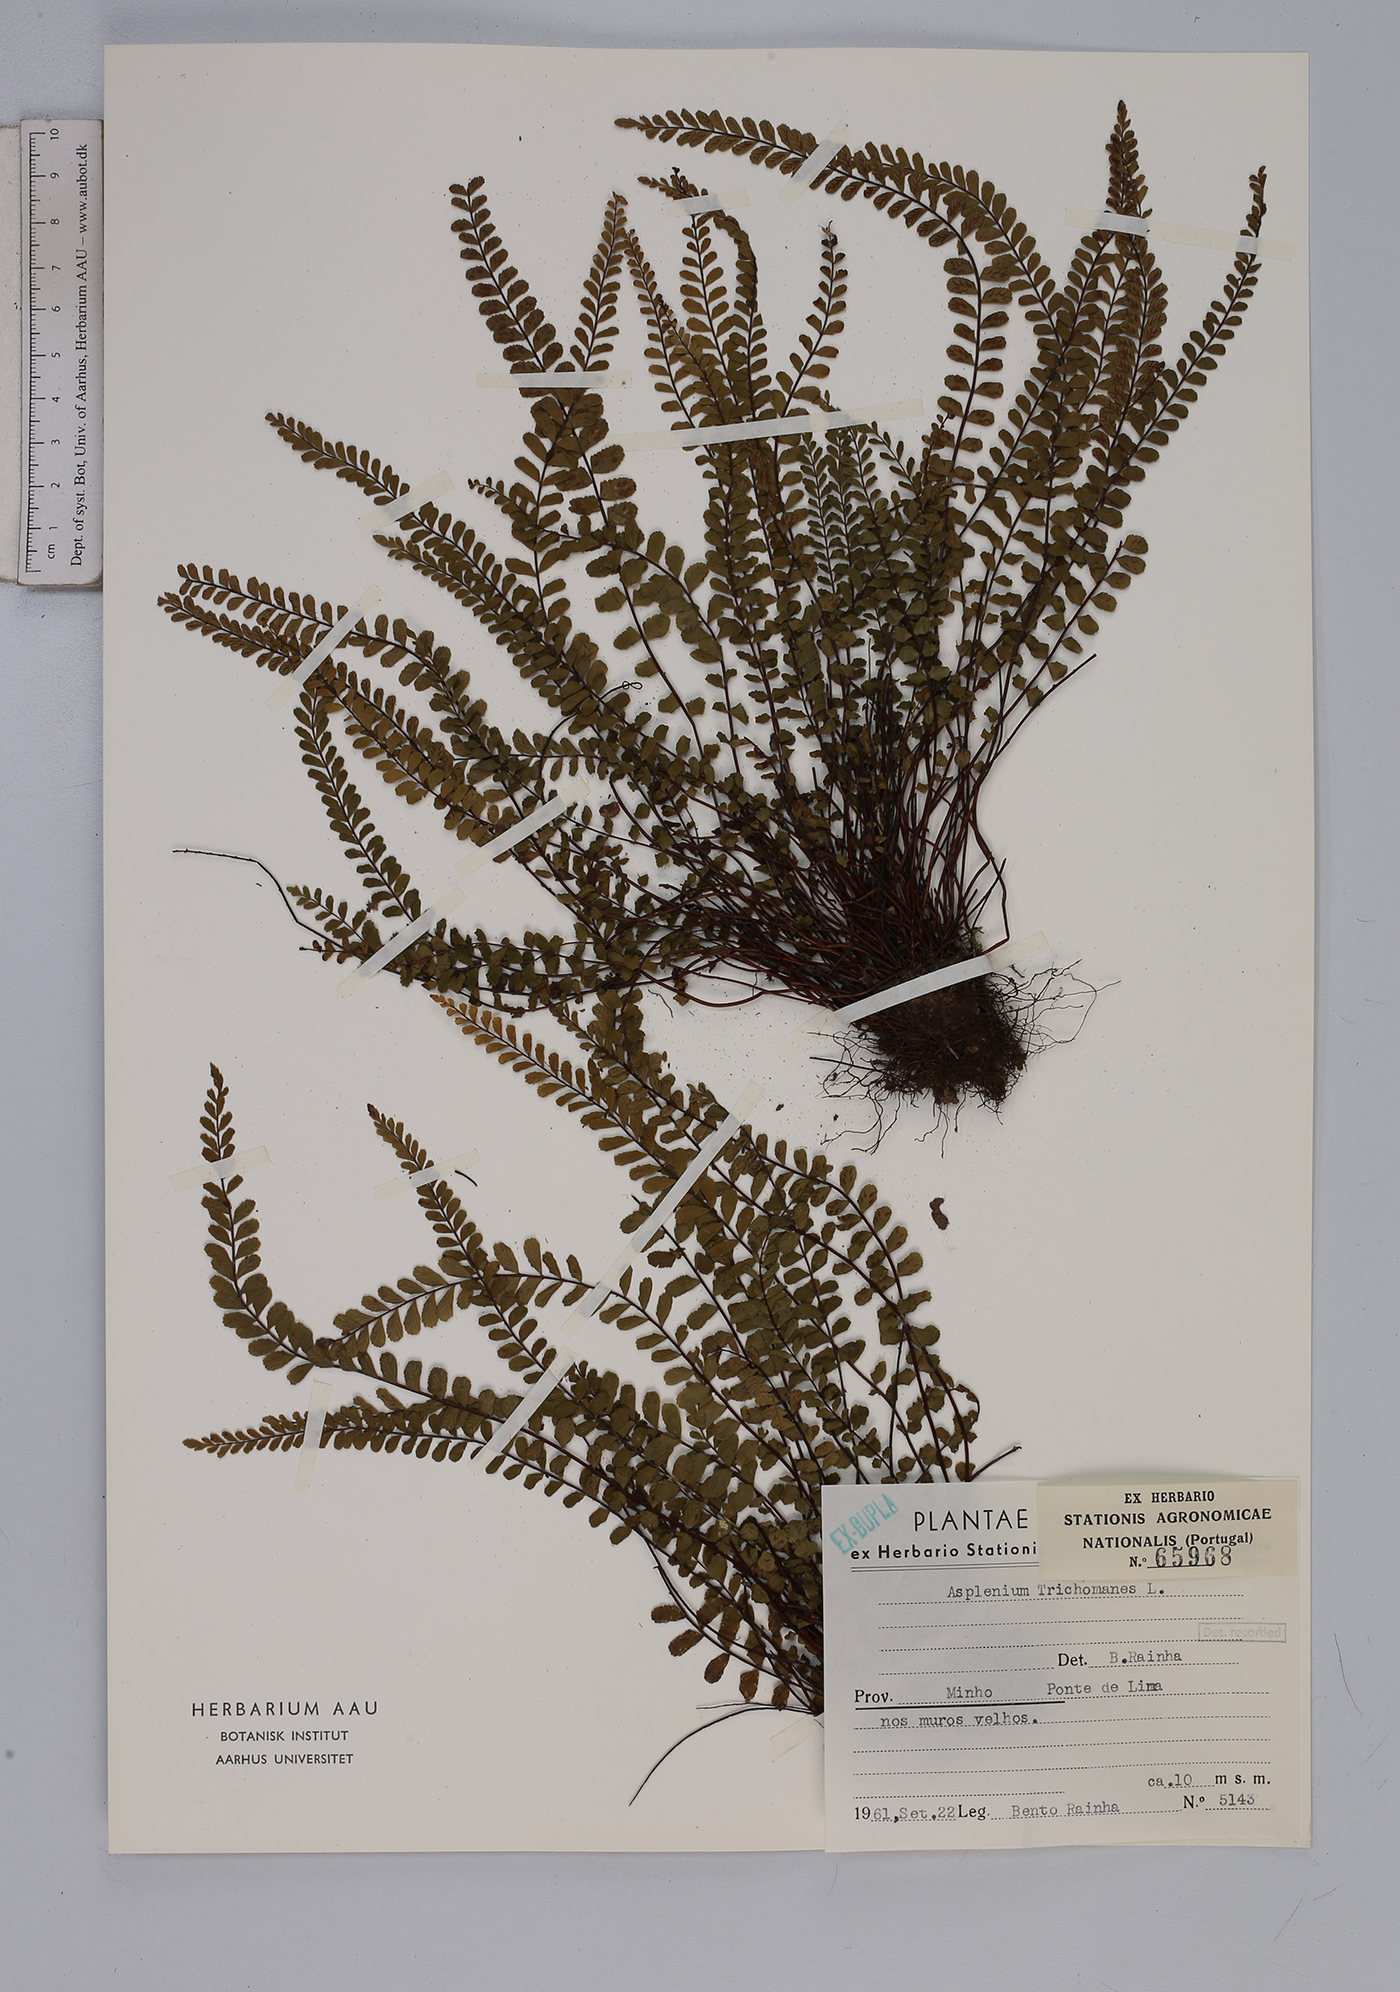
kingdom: Plantae
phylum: Tracheophyta
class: Polypodiopsida
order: Polypodiales
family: Aspleniaceae
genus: Asplenium
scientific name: Asplenium trichomanes
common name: Maidenhair spleenwort
